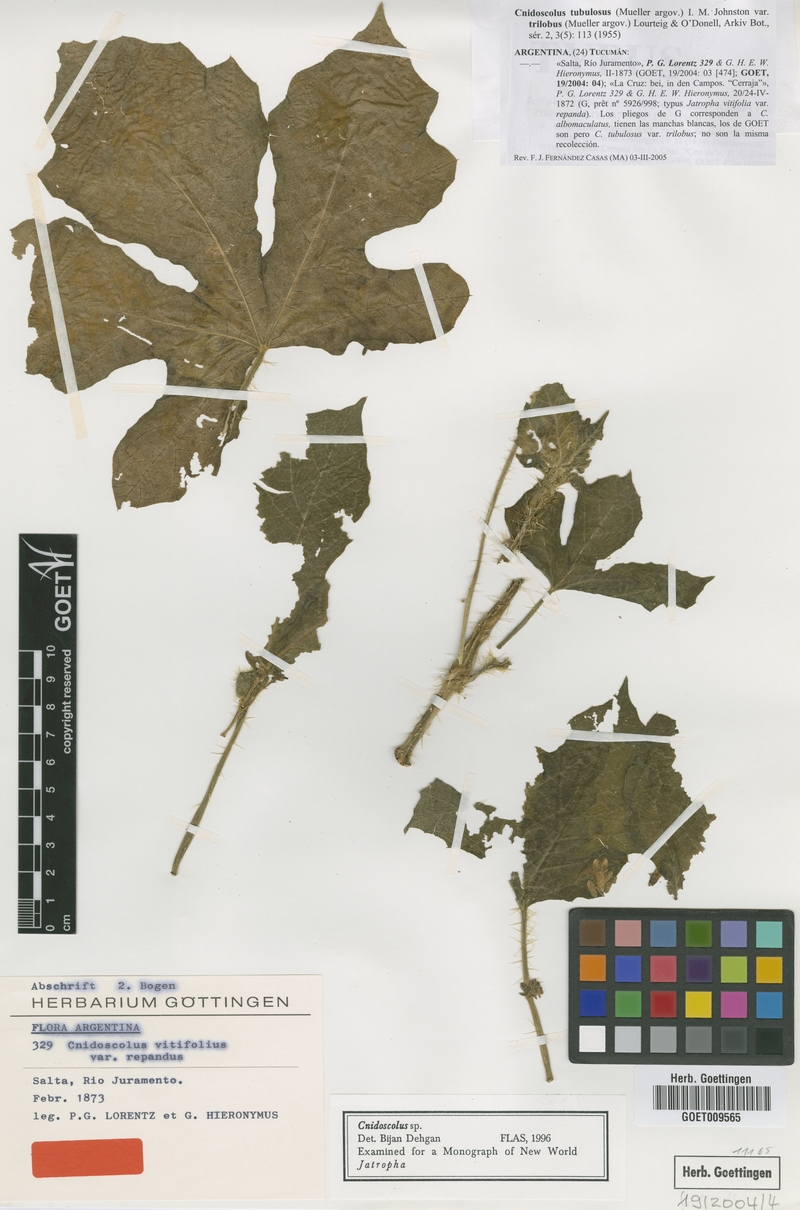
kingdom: Plantae
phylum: Tracheophyta
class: Magnoliopsida
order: Malpighiales
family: Euphorbiaceae
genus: Cnidoscolus
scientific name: Cnidoscolus urens
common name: Bull-nettle
